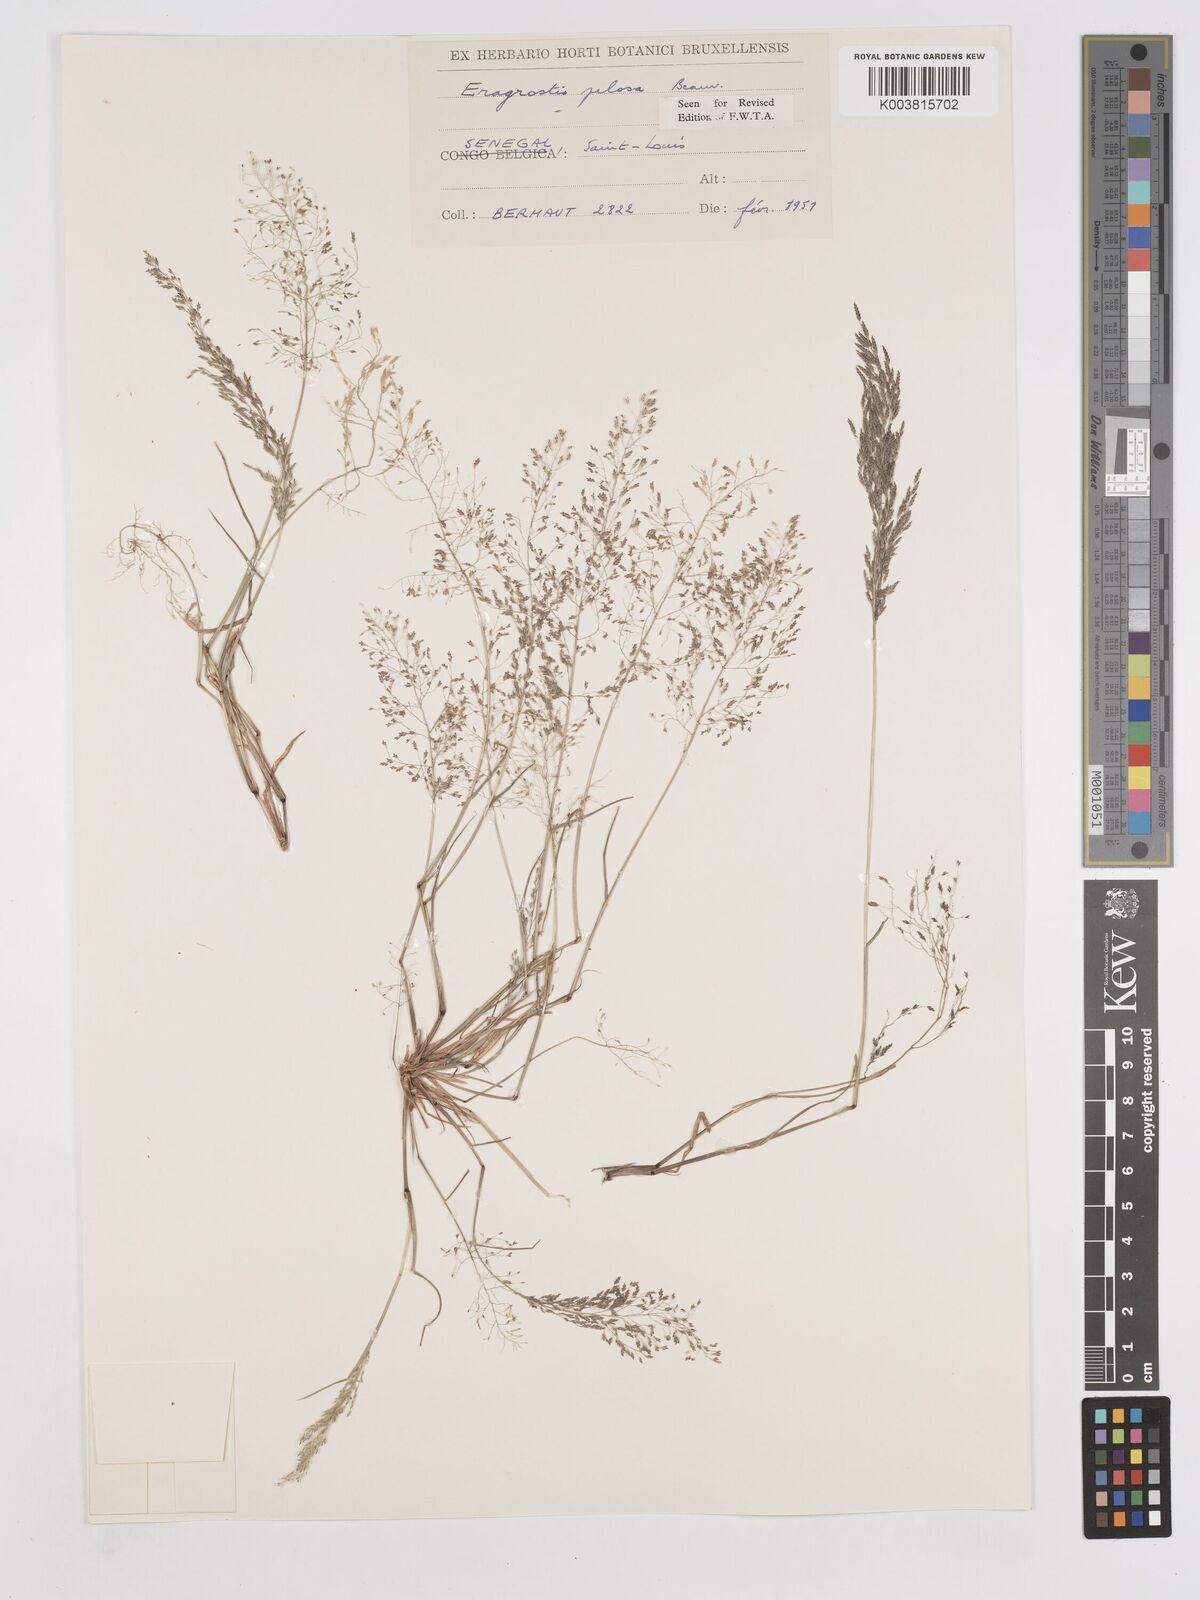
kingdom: Plantae
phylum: Tracheophyta
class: Liliopsida
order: Poales
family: Poaceae
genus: Eragrostis
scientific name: Eragrostis pilosa
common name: Indian lovegrass
